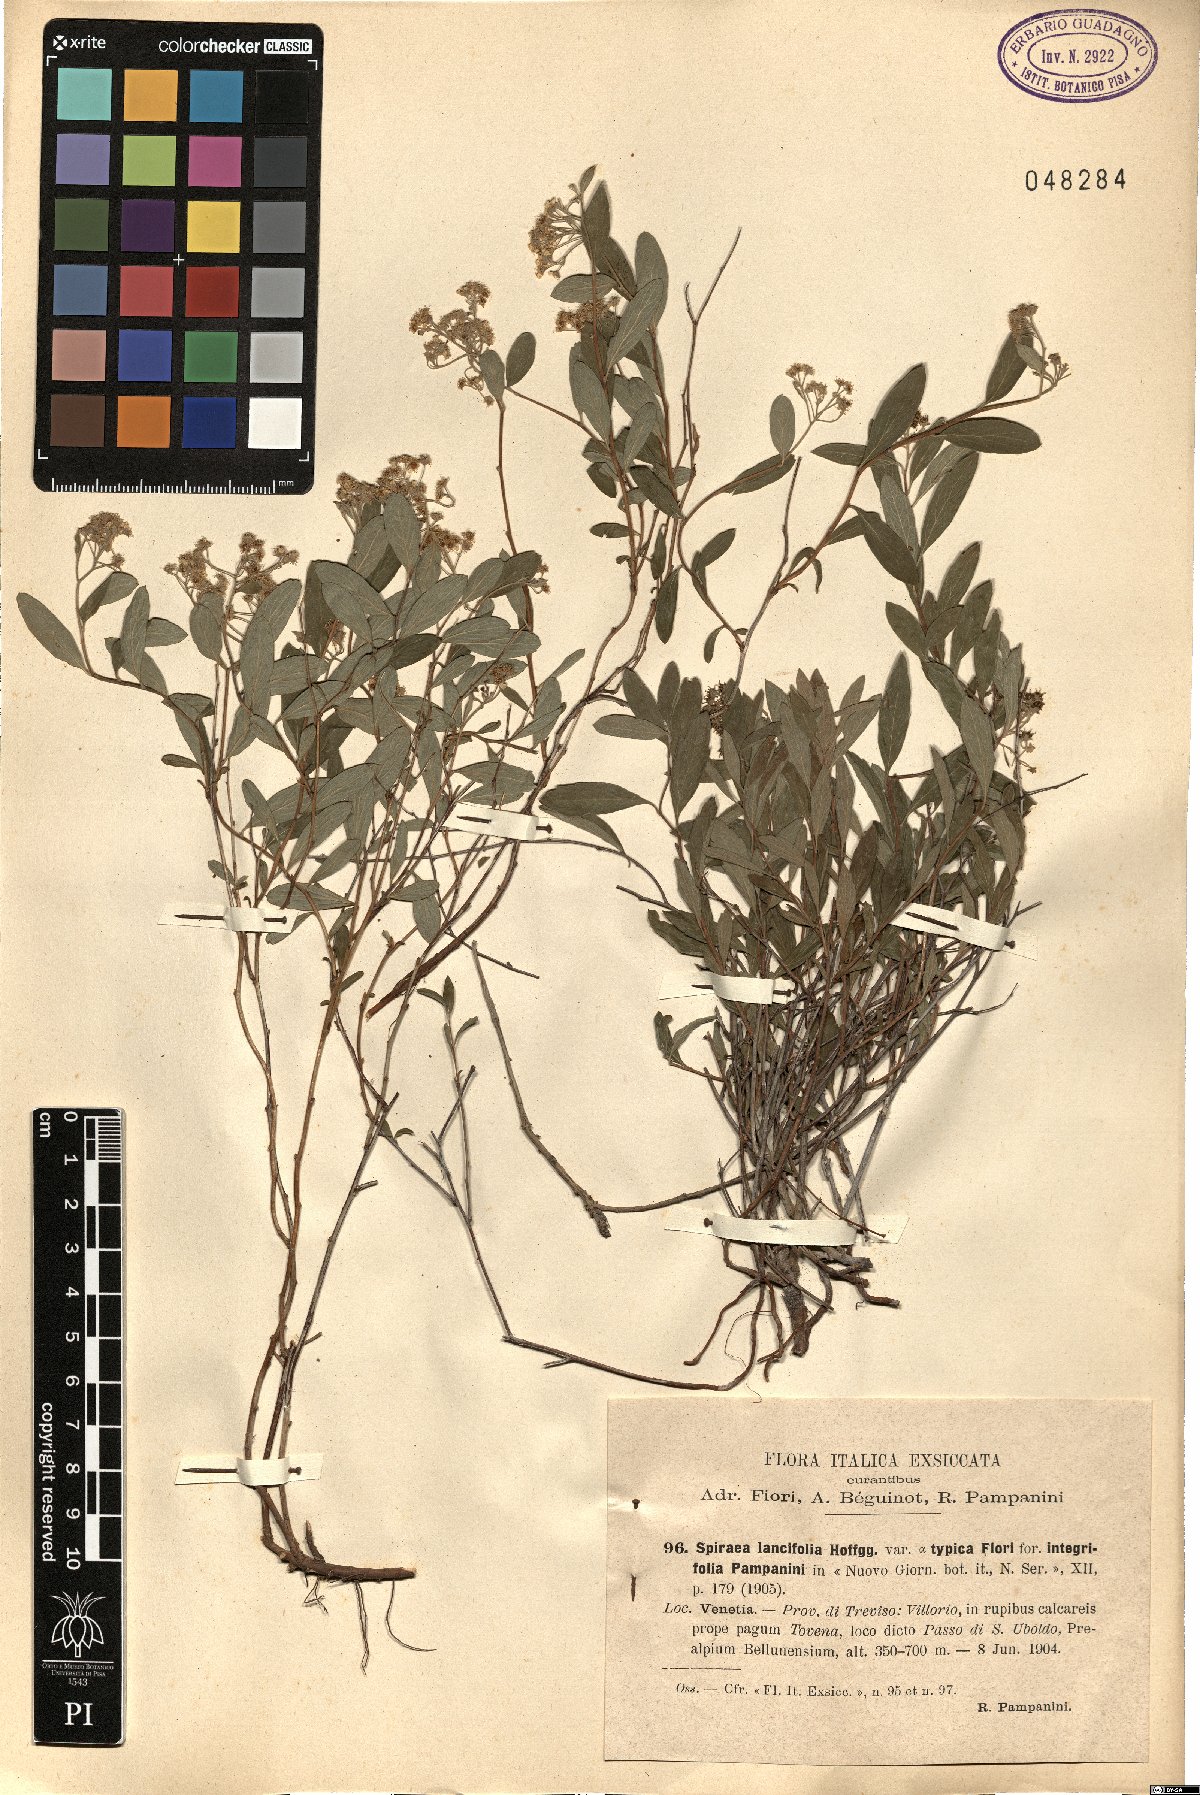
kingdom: Plantae
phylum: Tracheophyta
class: Magnoliopsida
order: Rosales
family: Rosaceae
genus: Spiraea
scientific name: Spiraea decumbens
